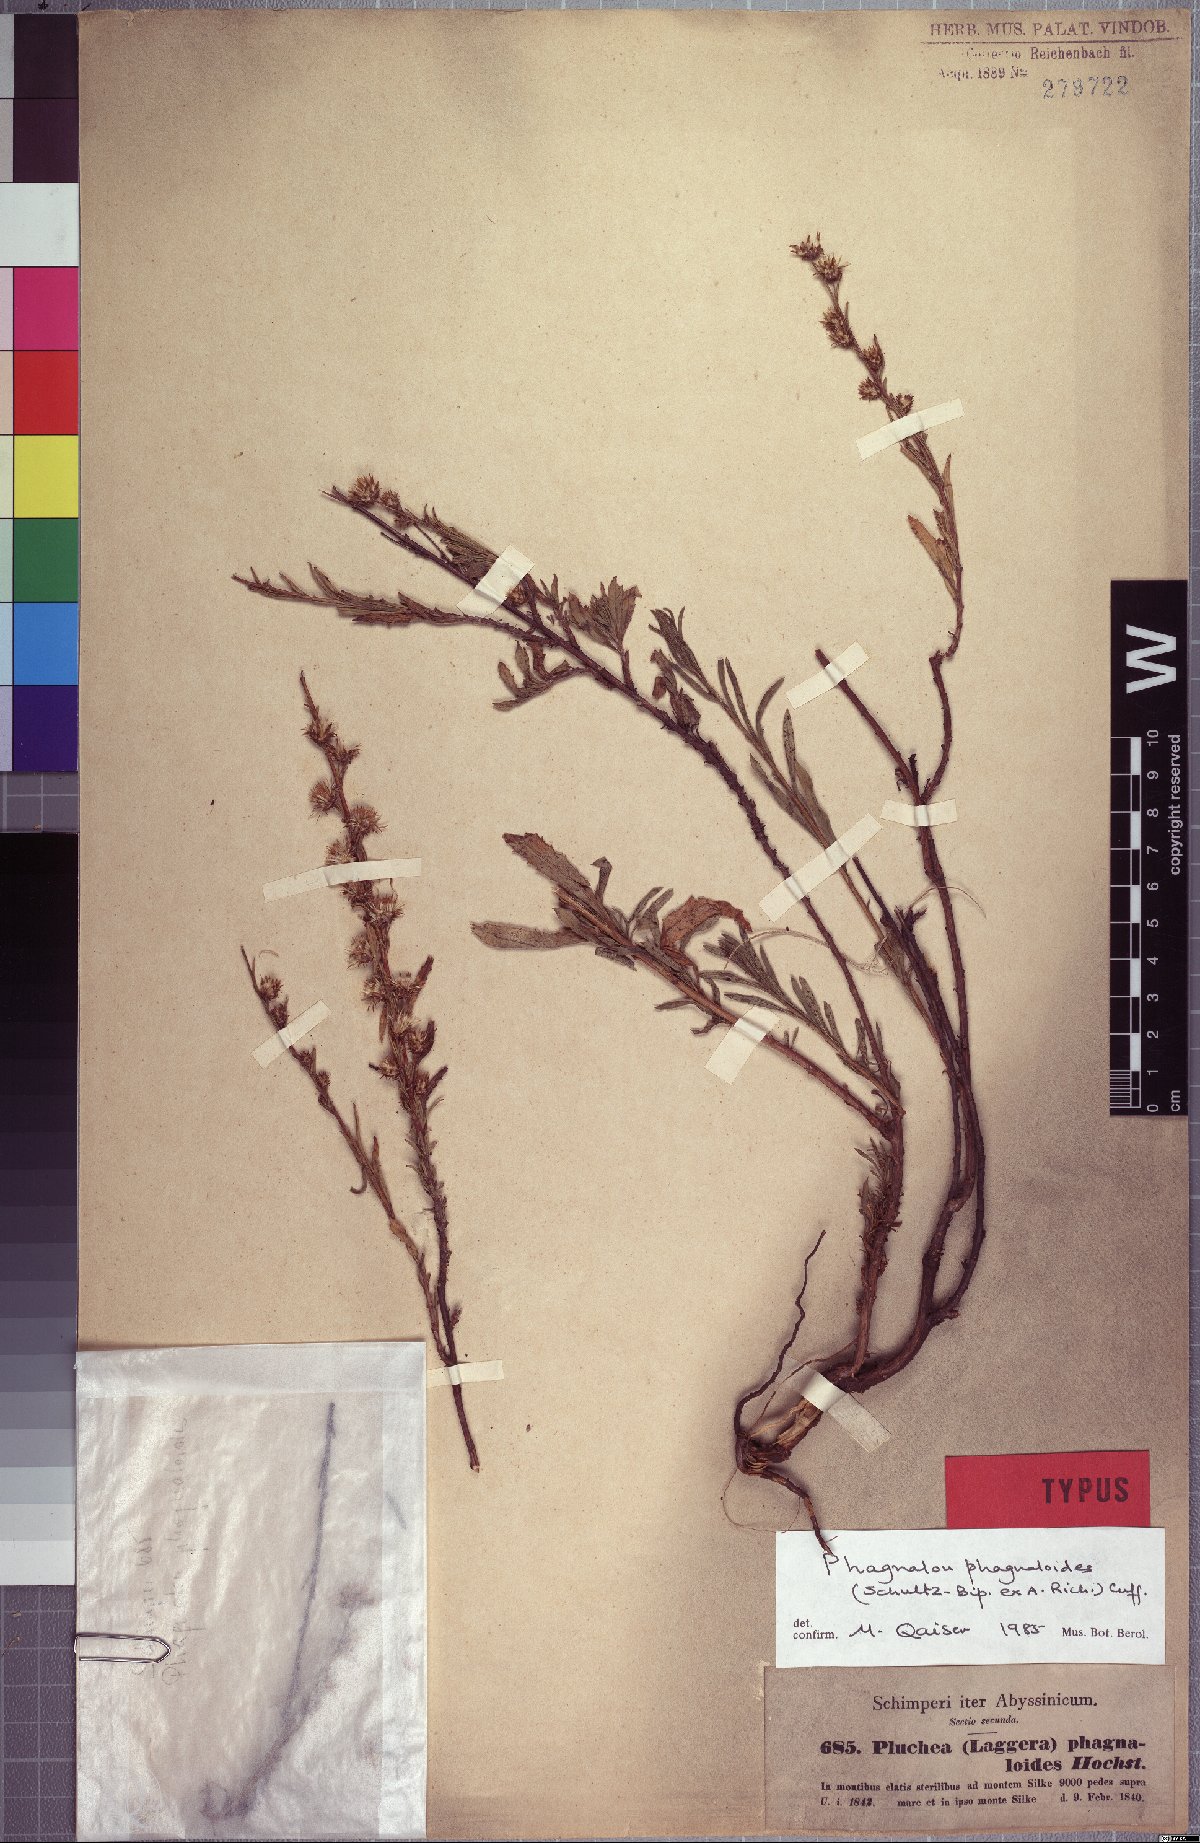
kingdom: Plantae
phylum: Tracheophyta
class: Magnoliopsida
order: Asterales
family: Asteraceae
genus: Phagnalon
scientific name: Phagnalon phagnaloides
